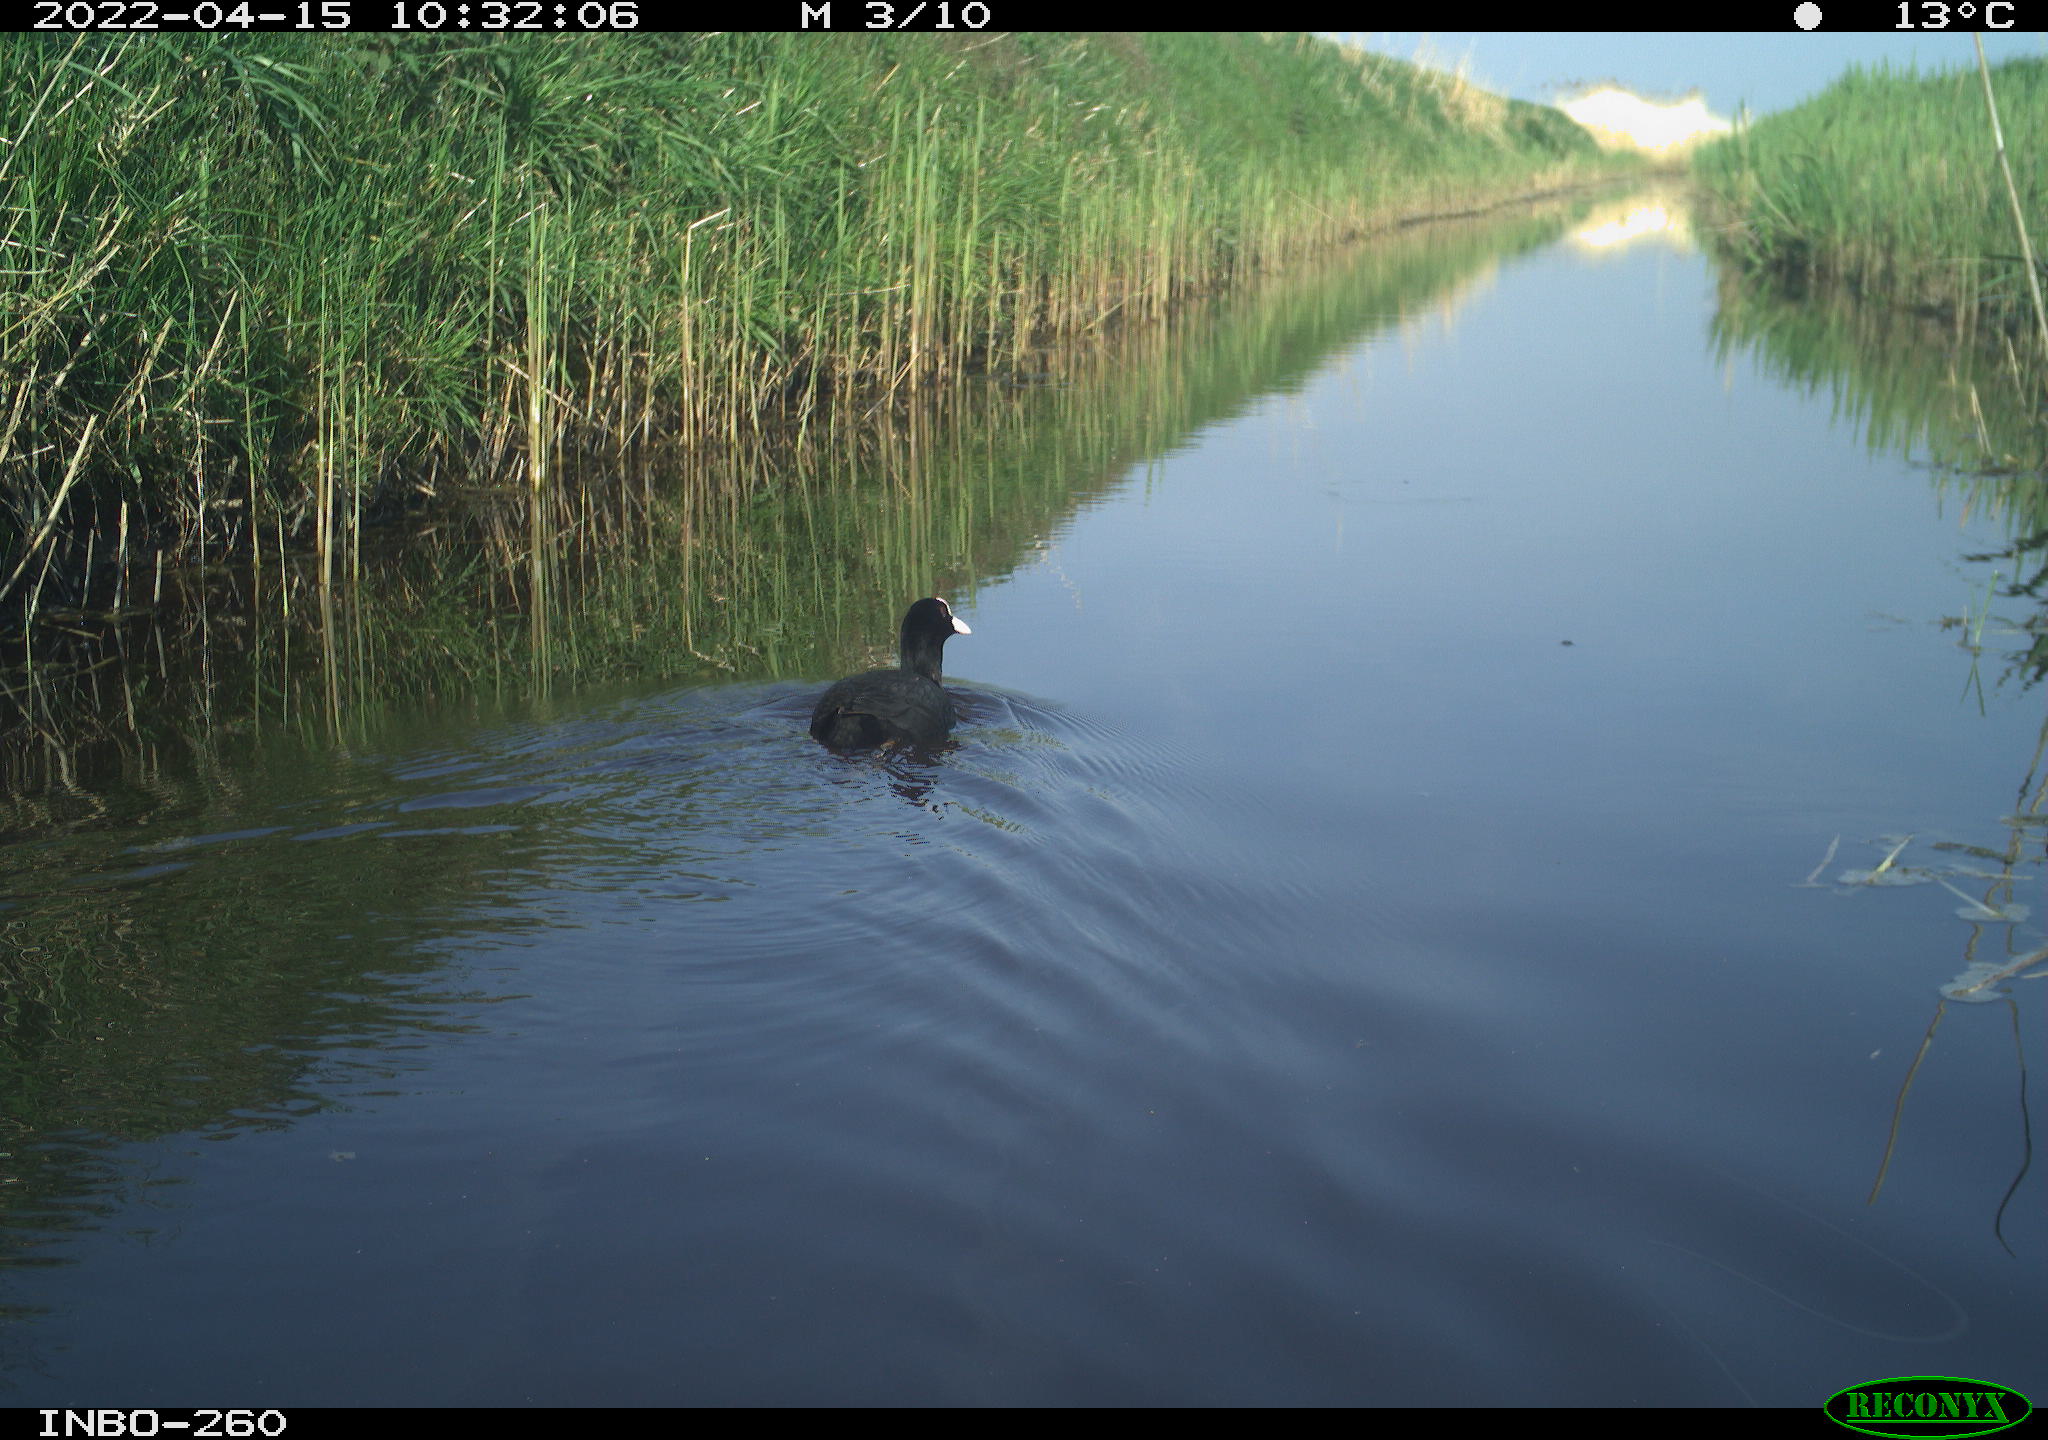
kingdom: Animalia
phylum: Chordata
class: Aves
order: Gruiformes
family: Rallidae
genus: Fulica
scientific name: Fulica atra
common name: Eurasian coot
